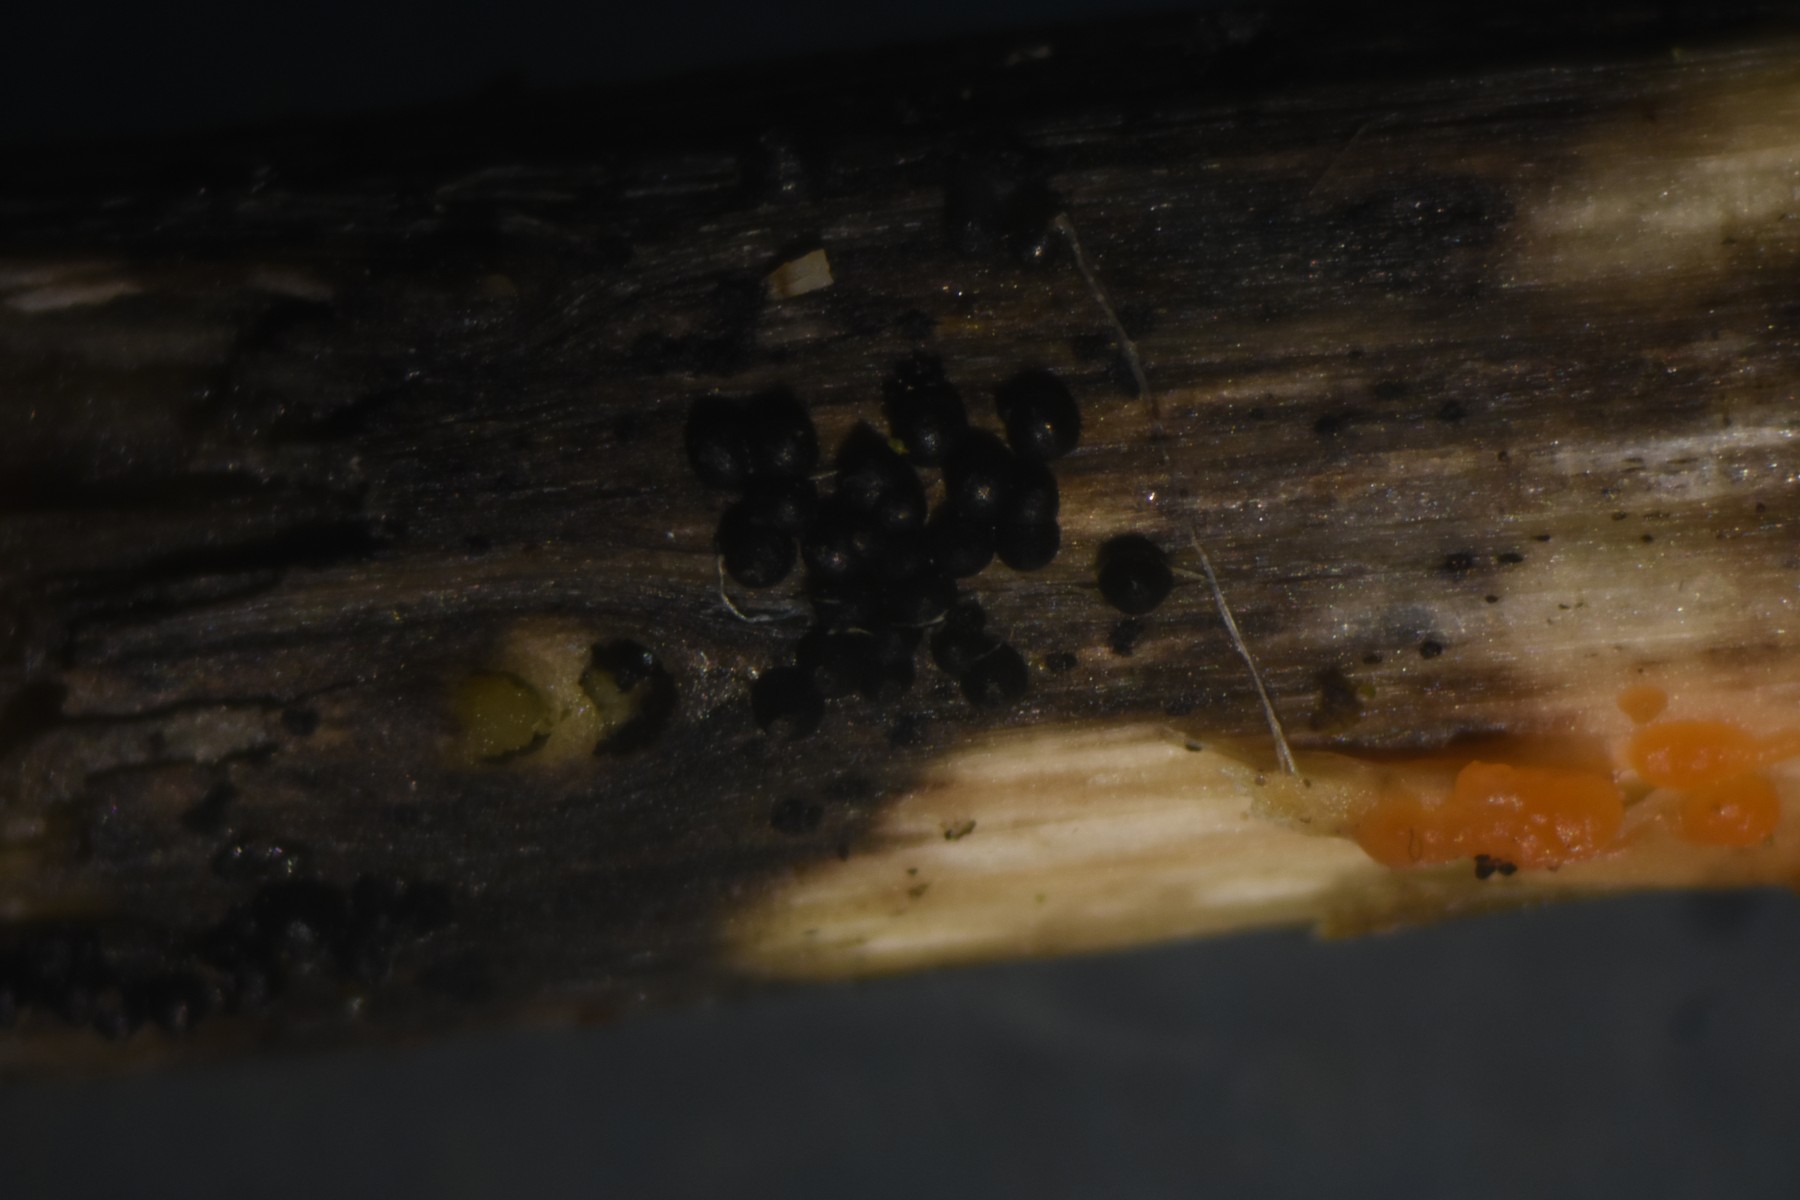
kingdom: Fungi
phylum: Ascomycota
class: Dothideomycetes
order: Pleosporales
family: Leptosphaeriaceae
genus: Leptosphaeria
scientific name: Leptosphaeria acuta
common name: spids kulkegle
